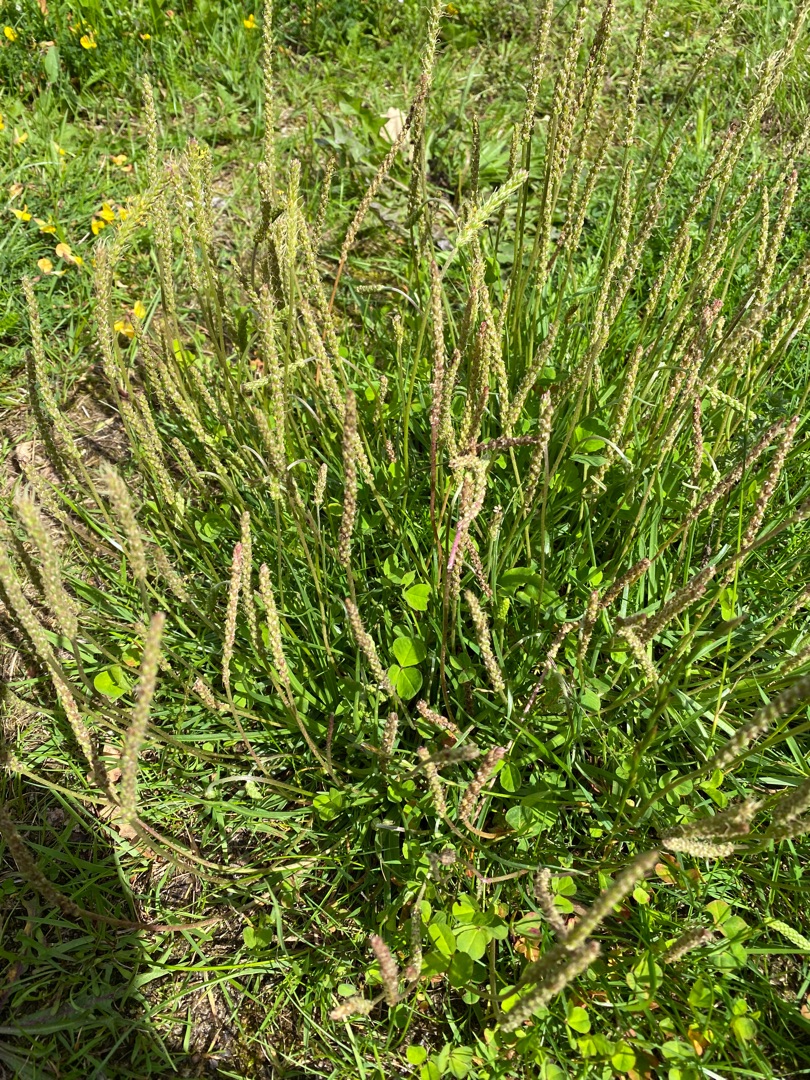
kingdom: Plantae
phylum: Tracheophyta
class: Magnoliopsida
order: Lamiales
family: Plantaginaceae
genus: Plantago
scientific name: Plantago maritima
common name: Strand-vejbred
